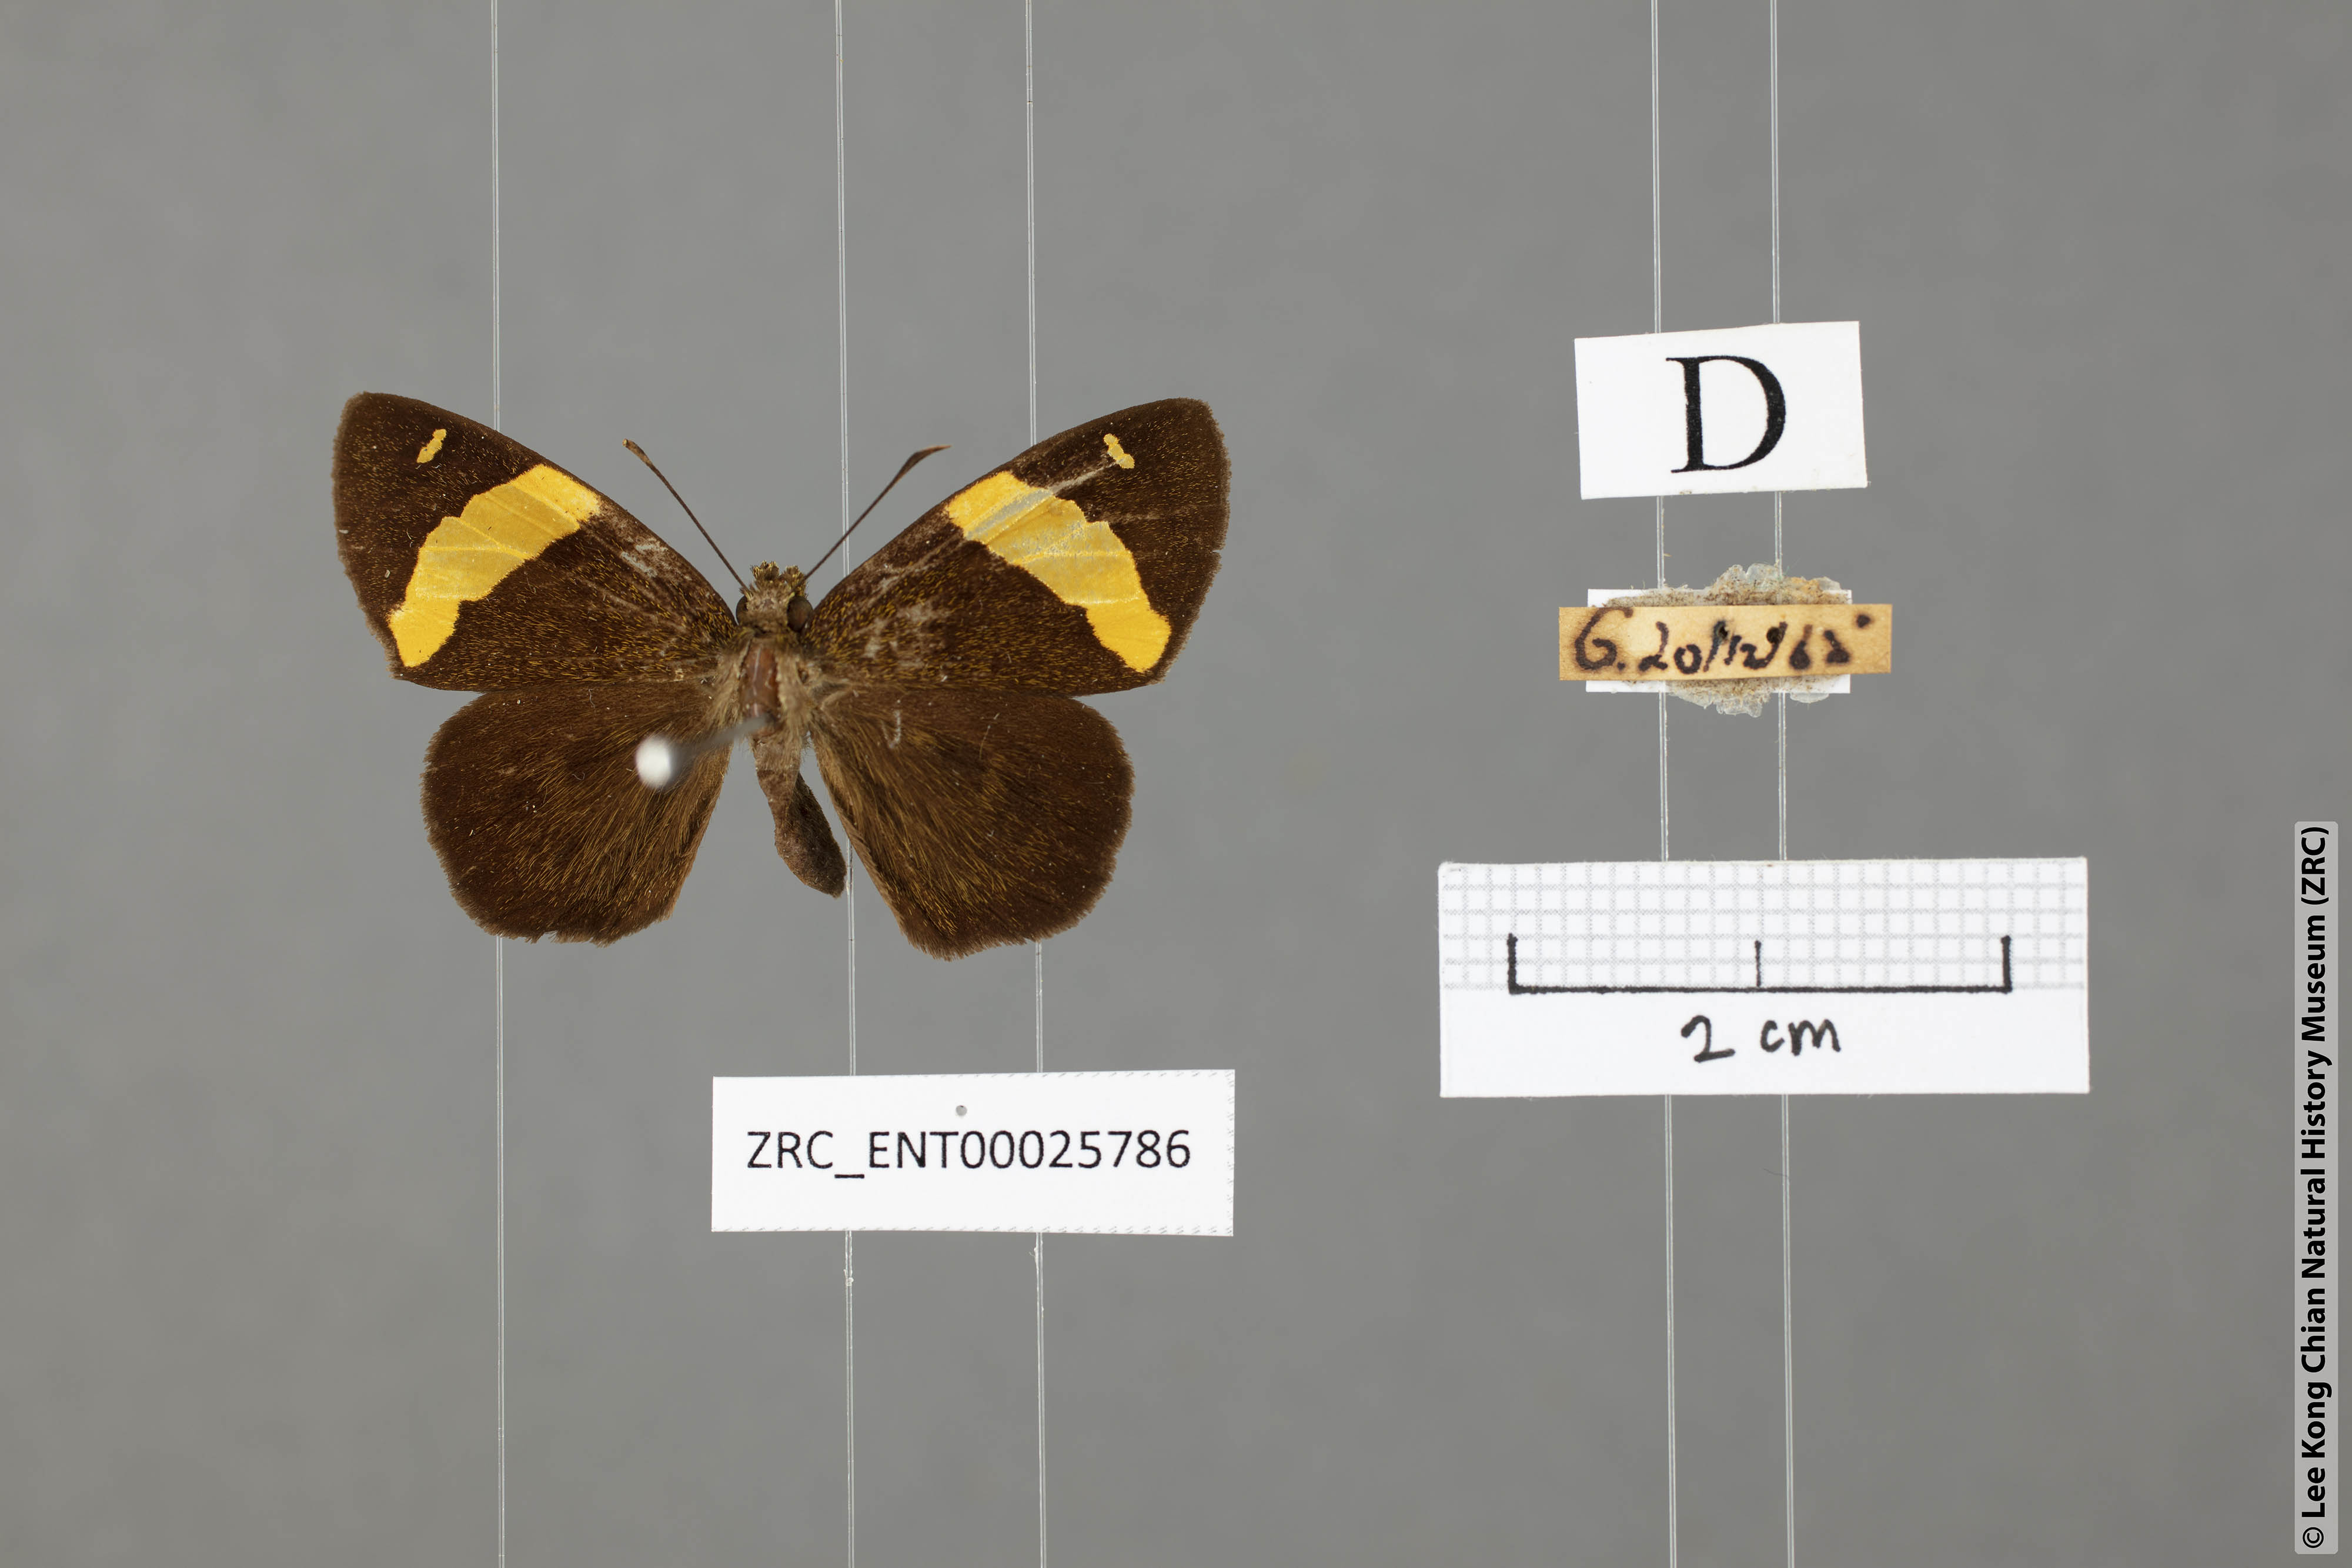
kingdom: Animalia
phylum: Arthropoda
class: Insecta
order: Lepidoptera
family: Hesperiidae
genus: Celaenorrhinus
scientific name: Celaenorrhinus aurivittata
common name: Dark yellow-banded flat
